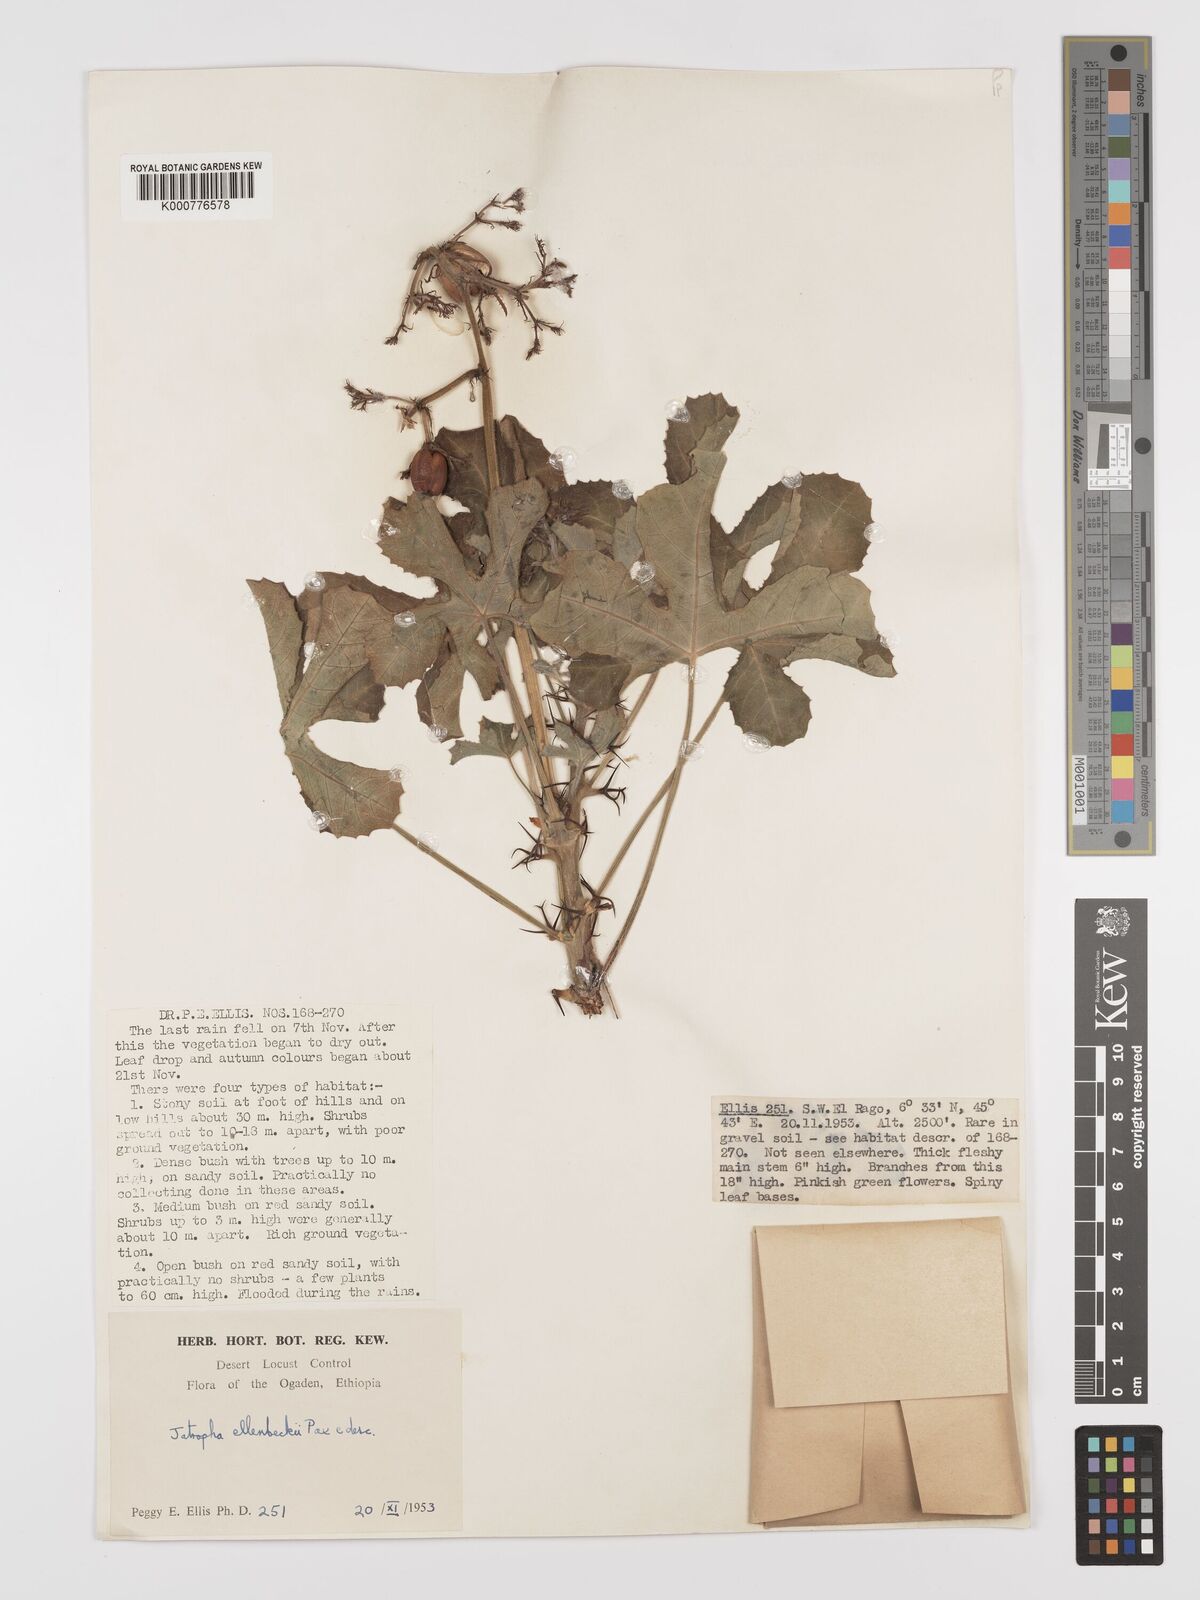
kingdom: Plantae
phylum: Tracheophyta
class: Magnoliopsida
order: Malpighiales
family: Euphorbiaceae
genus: Jatropha
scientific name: Jatropha ellenbeckii
